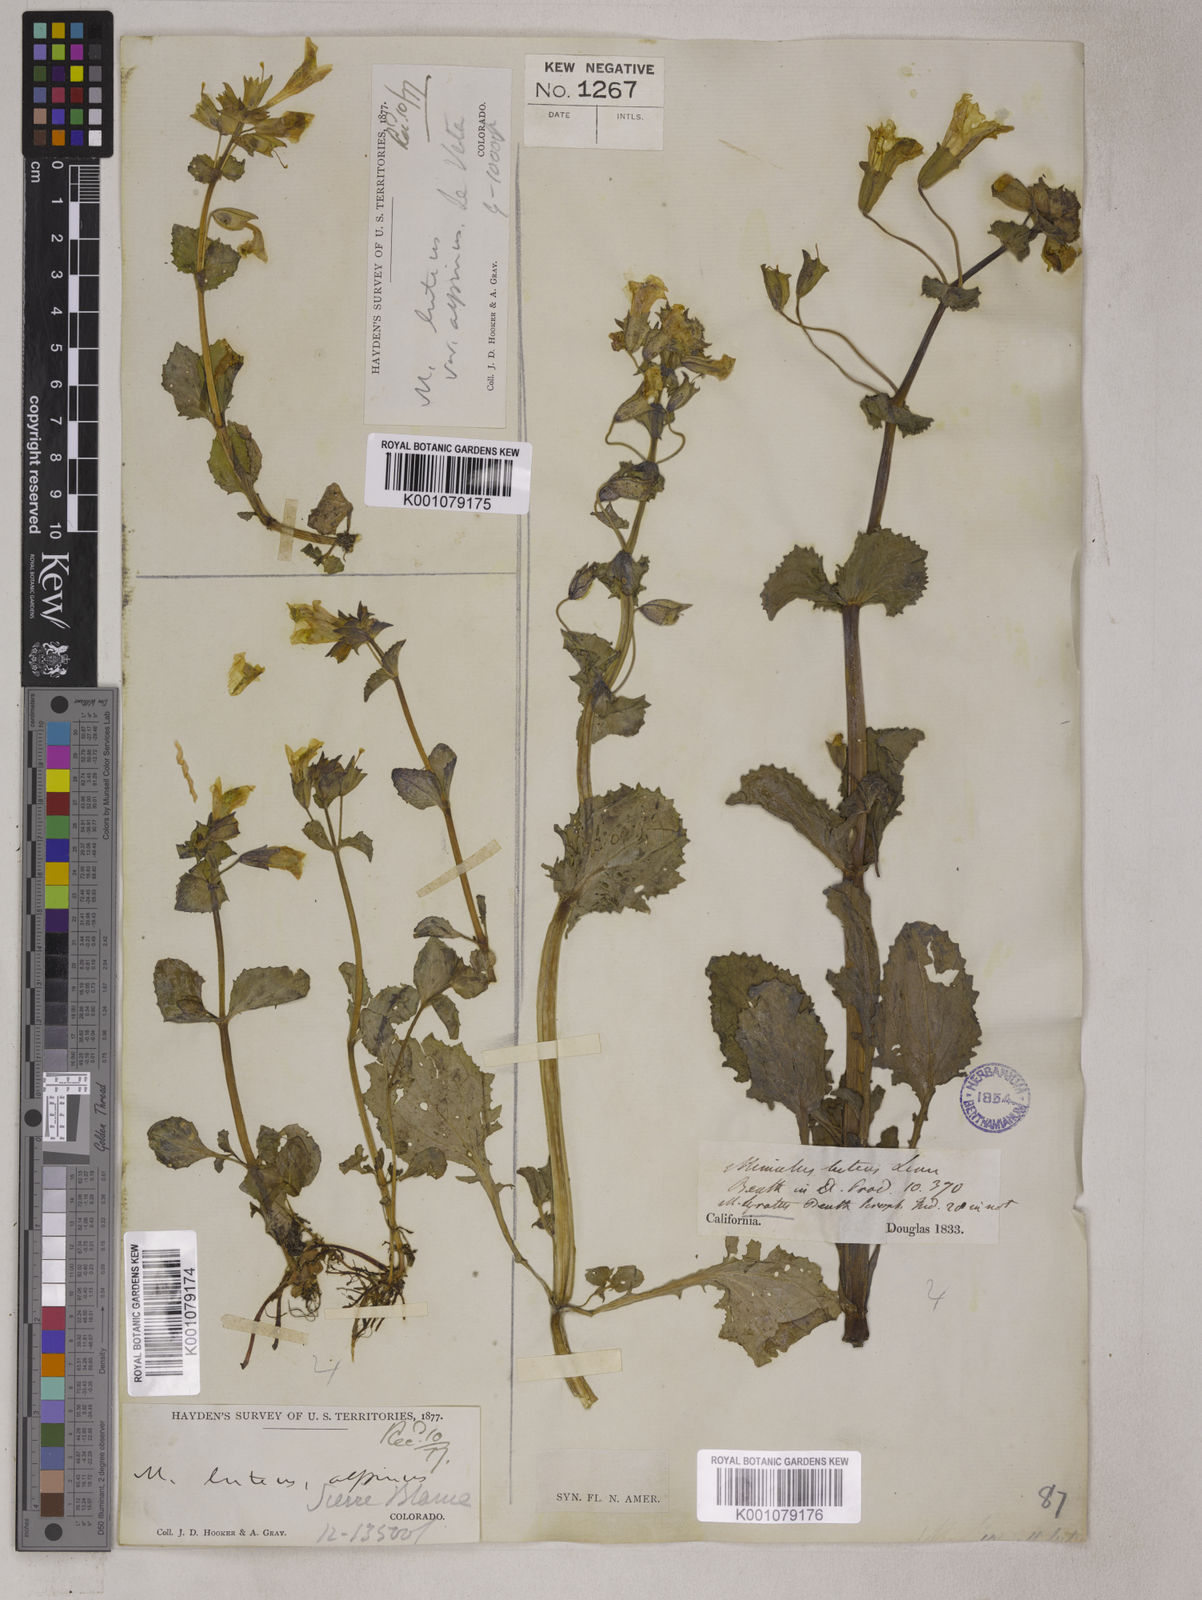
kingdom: Plantae
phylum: Tracheophyta
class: Magnoliopsida
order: Lamiales
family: Phrymaceae
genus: Erythranthe
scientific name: Erythranthe guttata
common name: Monkeyflower
